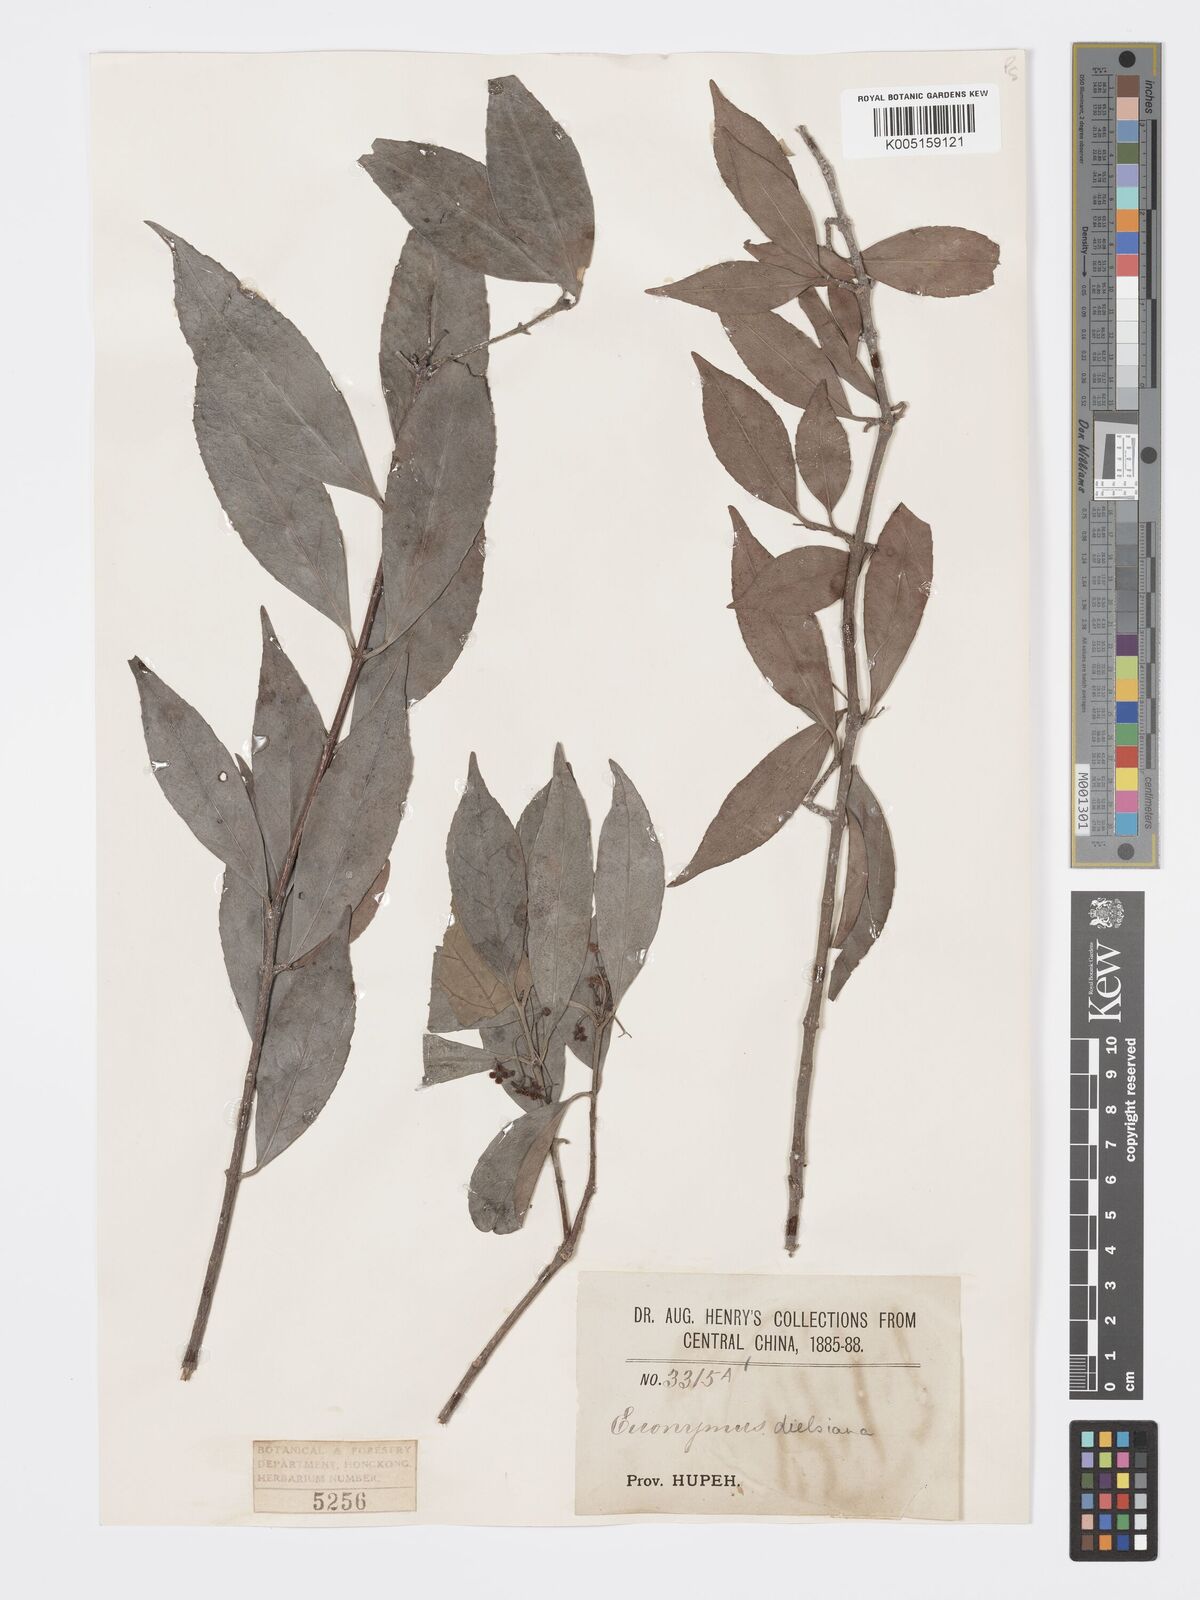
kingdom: Plantae
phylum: Tracheophyta
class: Magnoliopsida
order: Celastrales
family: Celastraceae
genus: Euonymus
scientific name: Euonymus dielsianus
